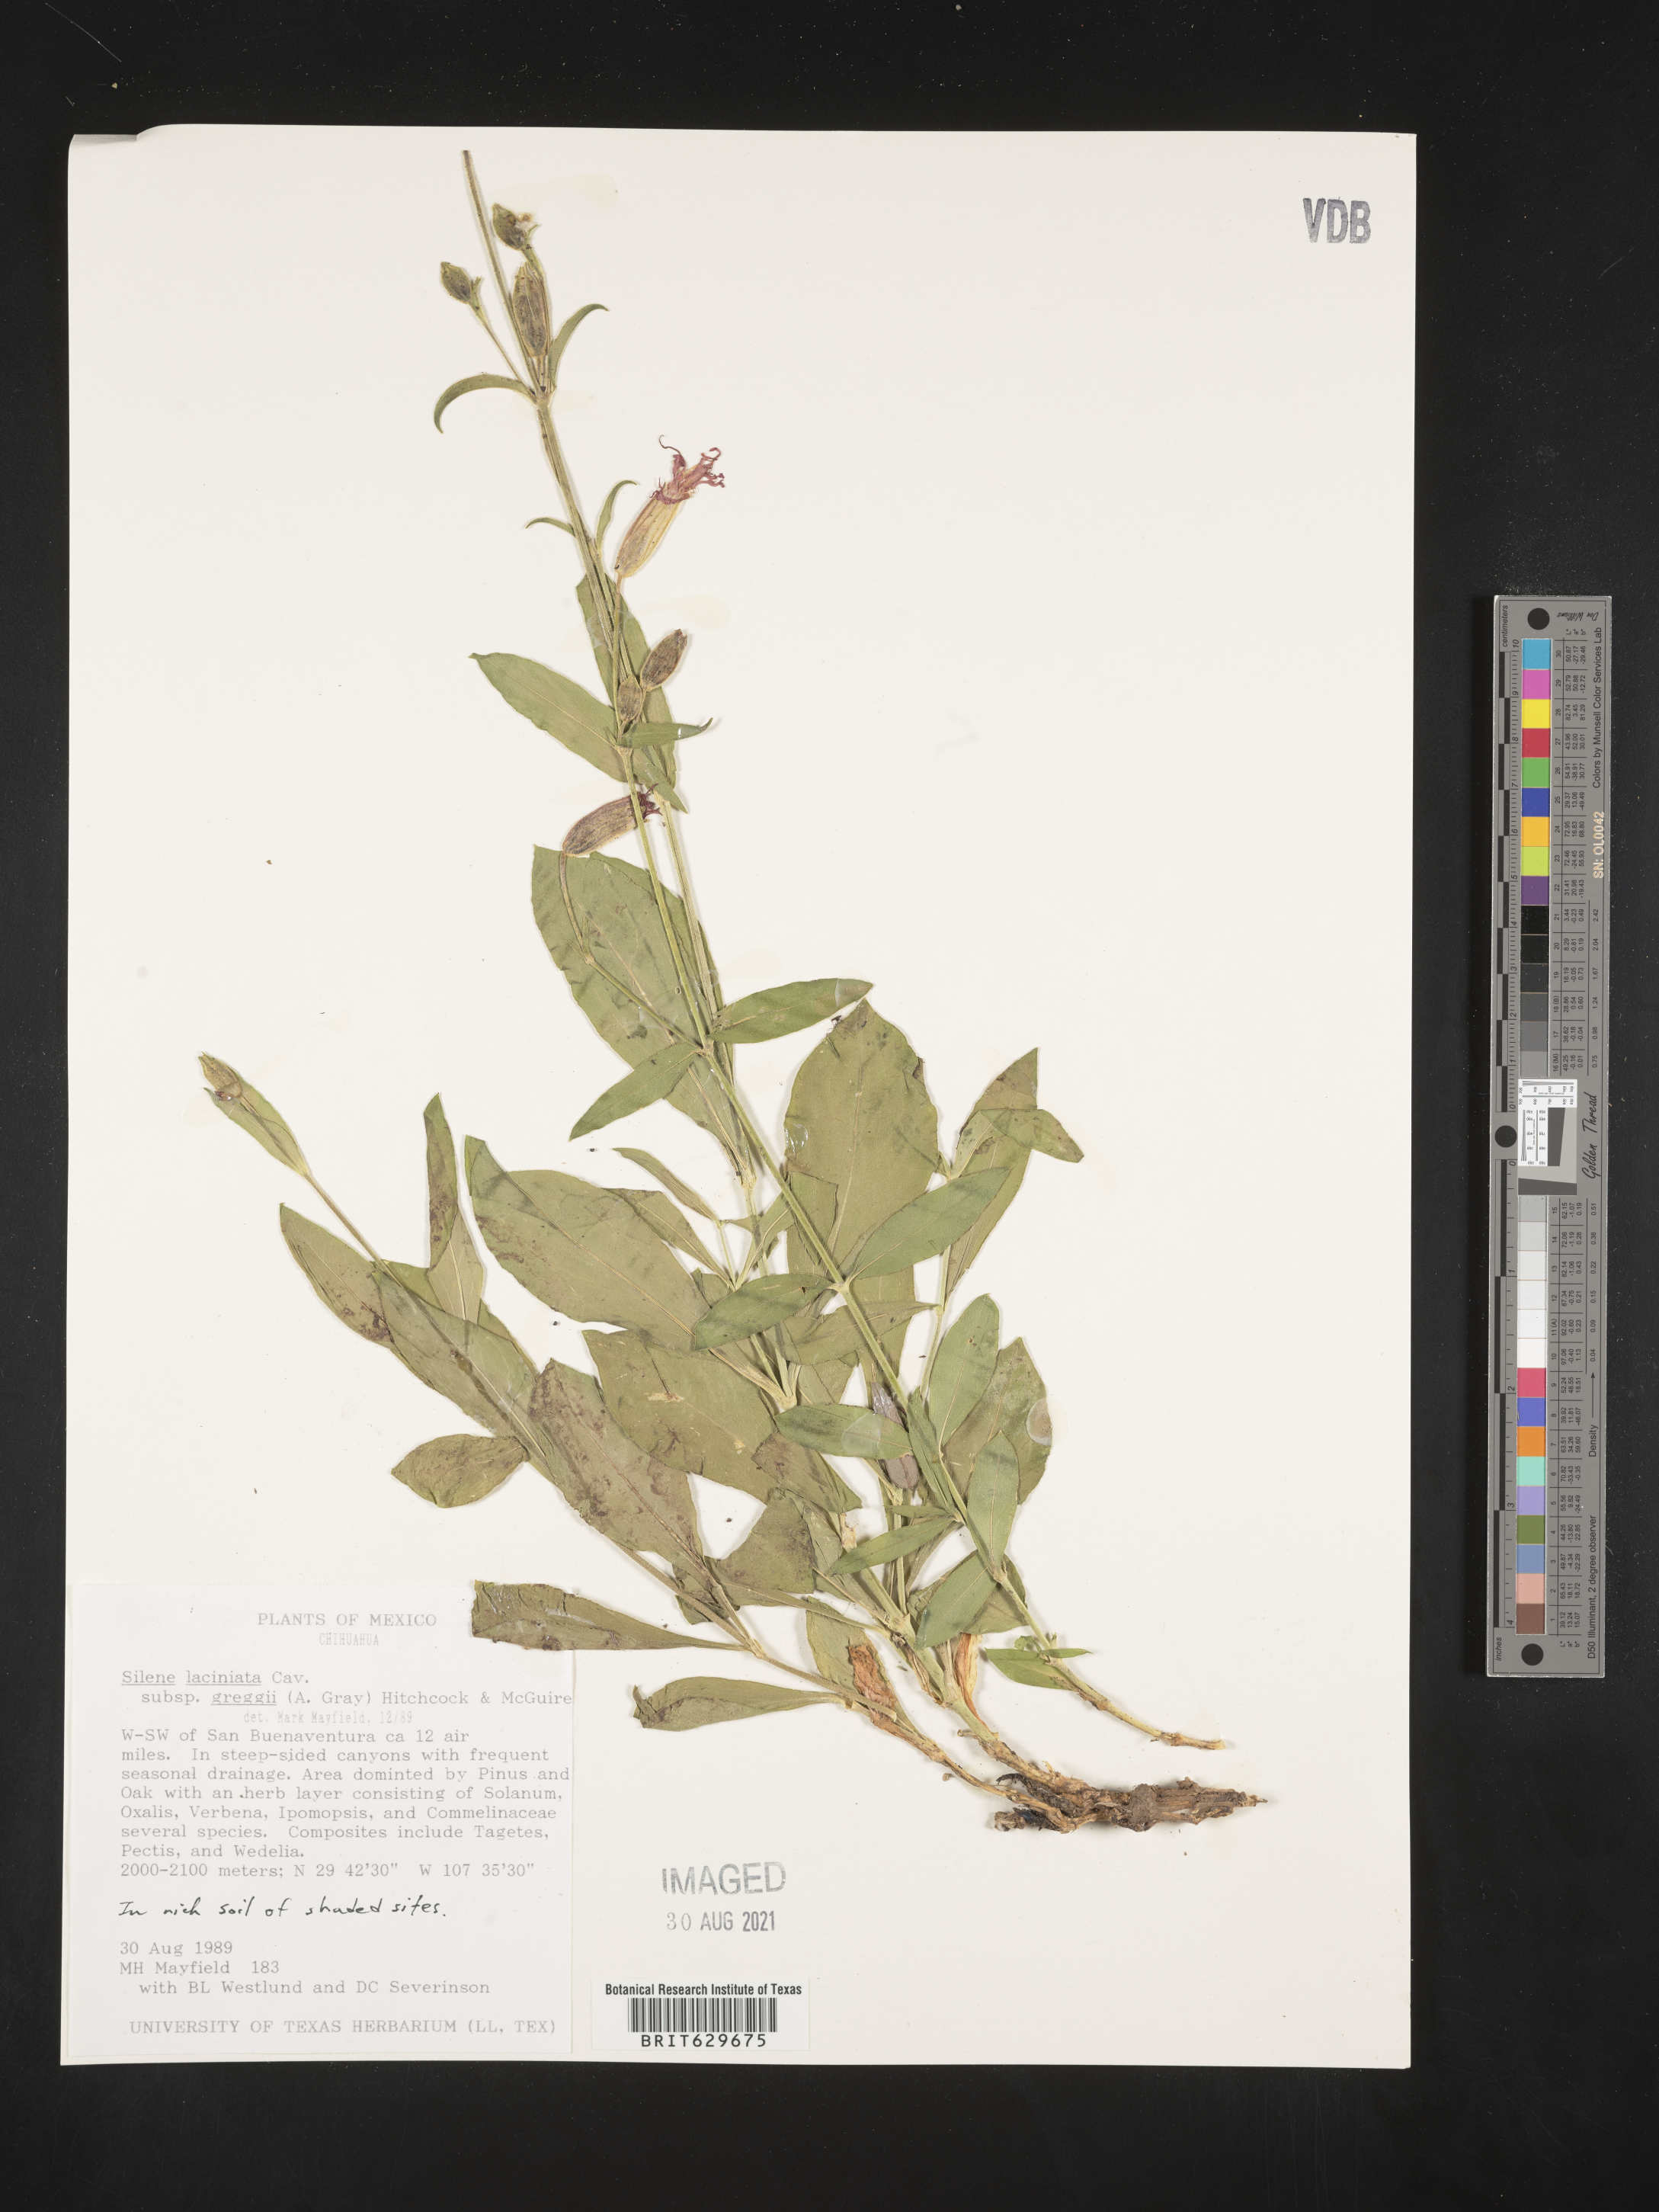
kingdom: Plantae
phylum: Tracheophyta
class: Magnoliopsida
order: Caryophyllales
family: Caryophyllaceae
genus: Silene
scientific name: Silene
